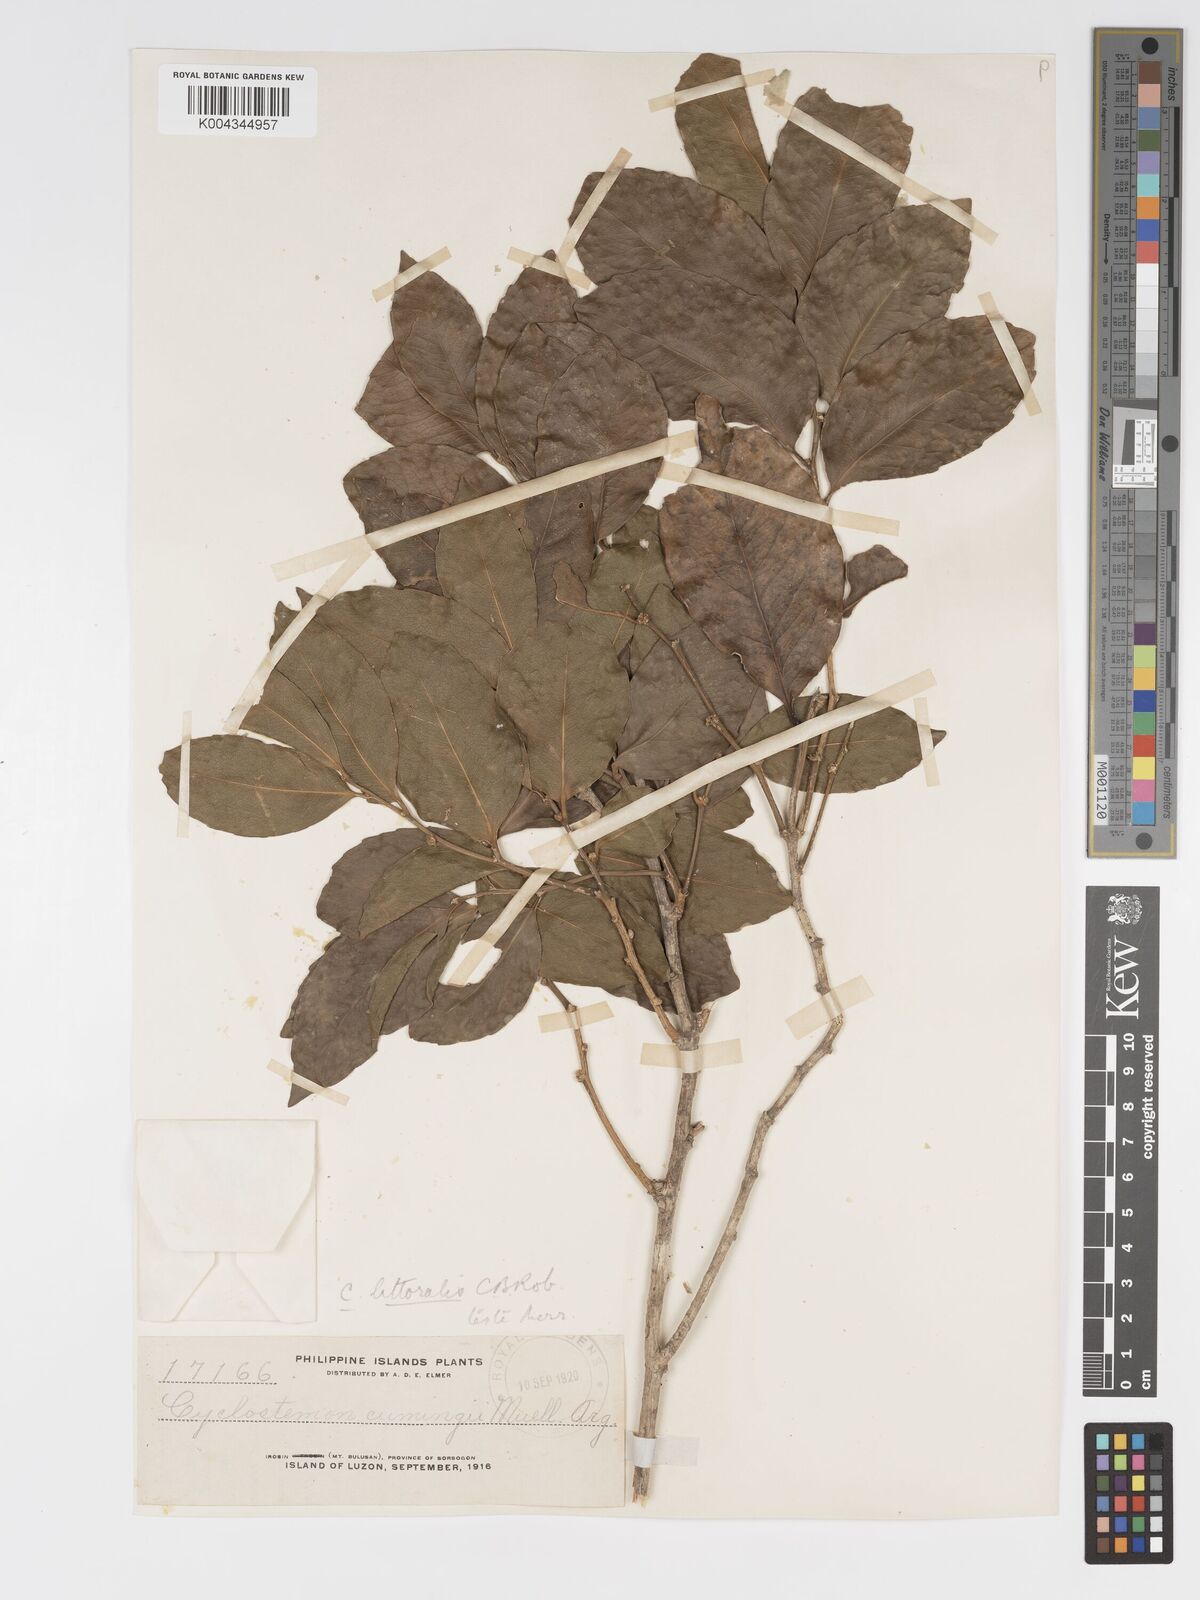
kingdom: Plantae
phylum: Tracheophyta
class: Magnoliopsida
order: Malpighiales
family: Putranjivaceae
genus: Drypetes
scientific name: Drypetes littoralis
